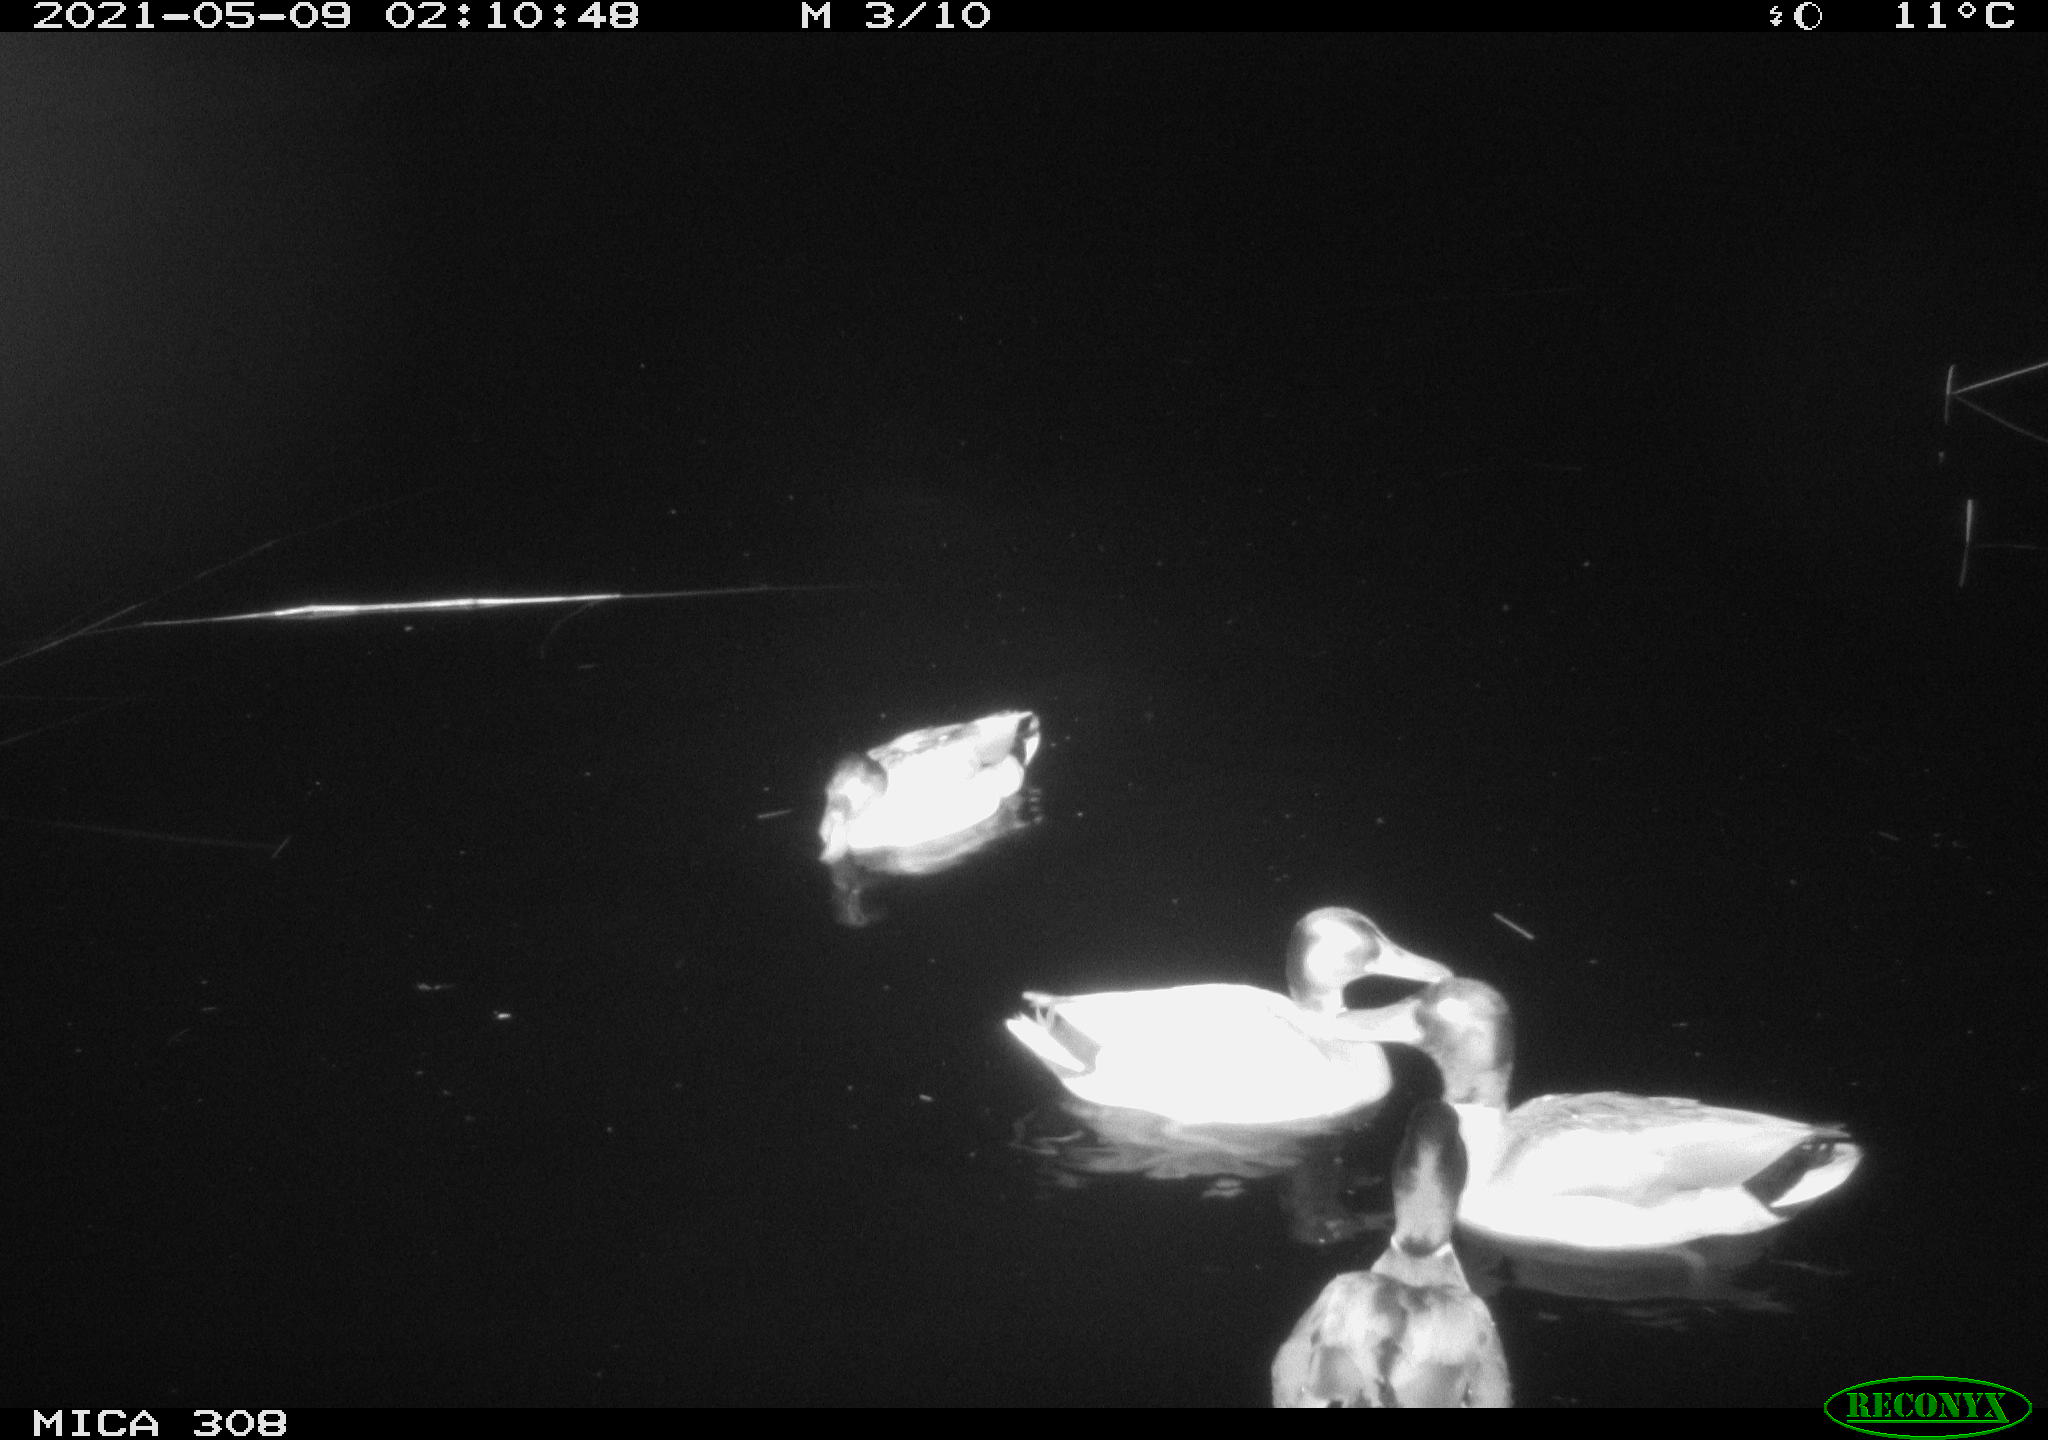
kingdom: Animalia
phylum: Chordata
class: Aves
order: Anseriformes
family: Anatidae
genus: Anas
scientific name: Anas platyrhynchos
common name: Mallard
